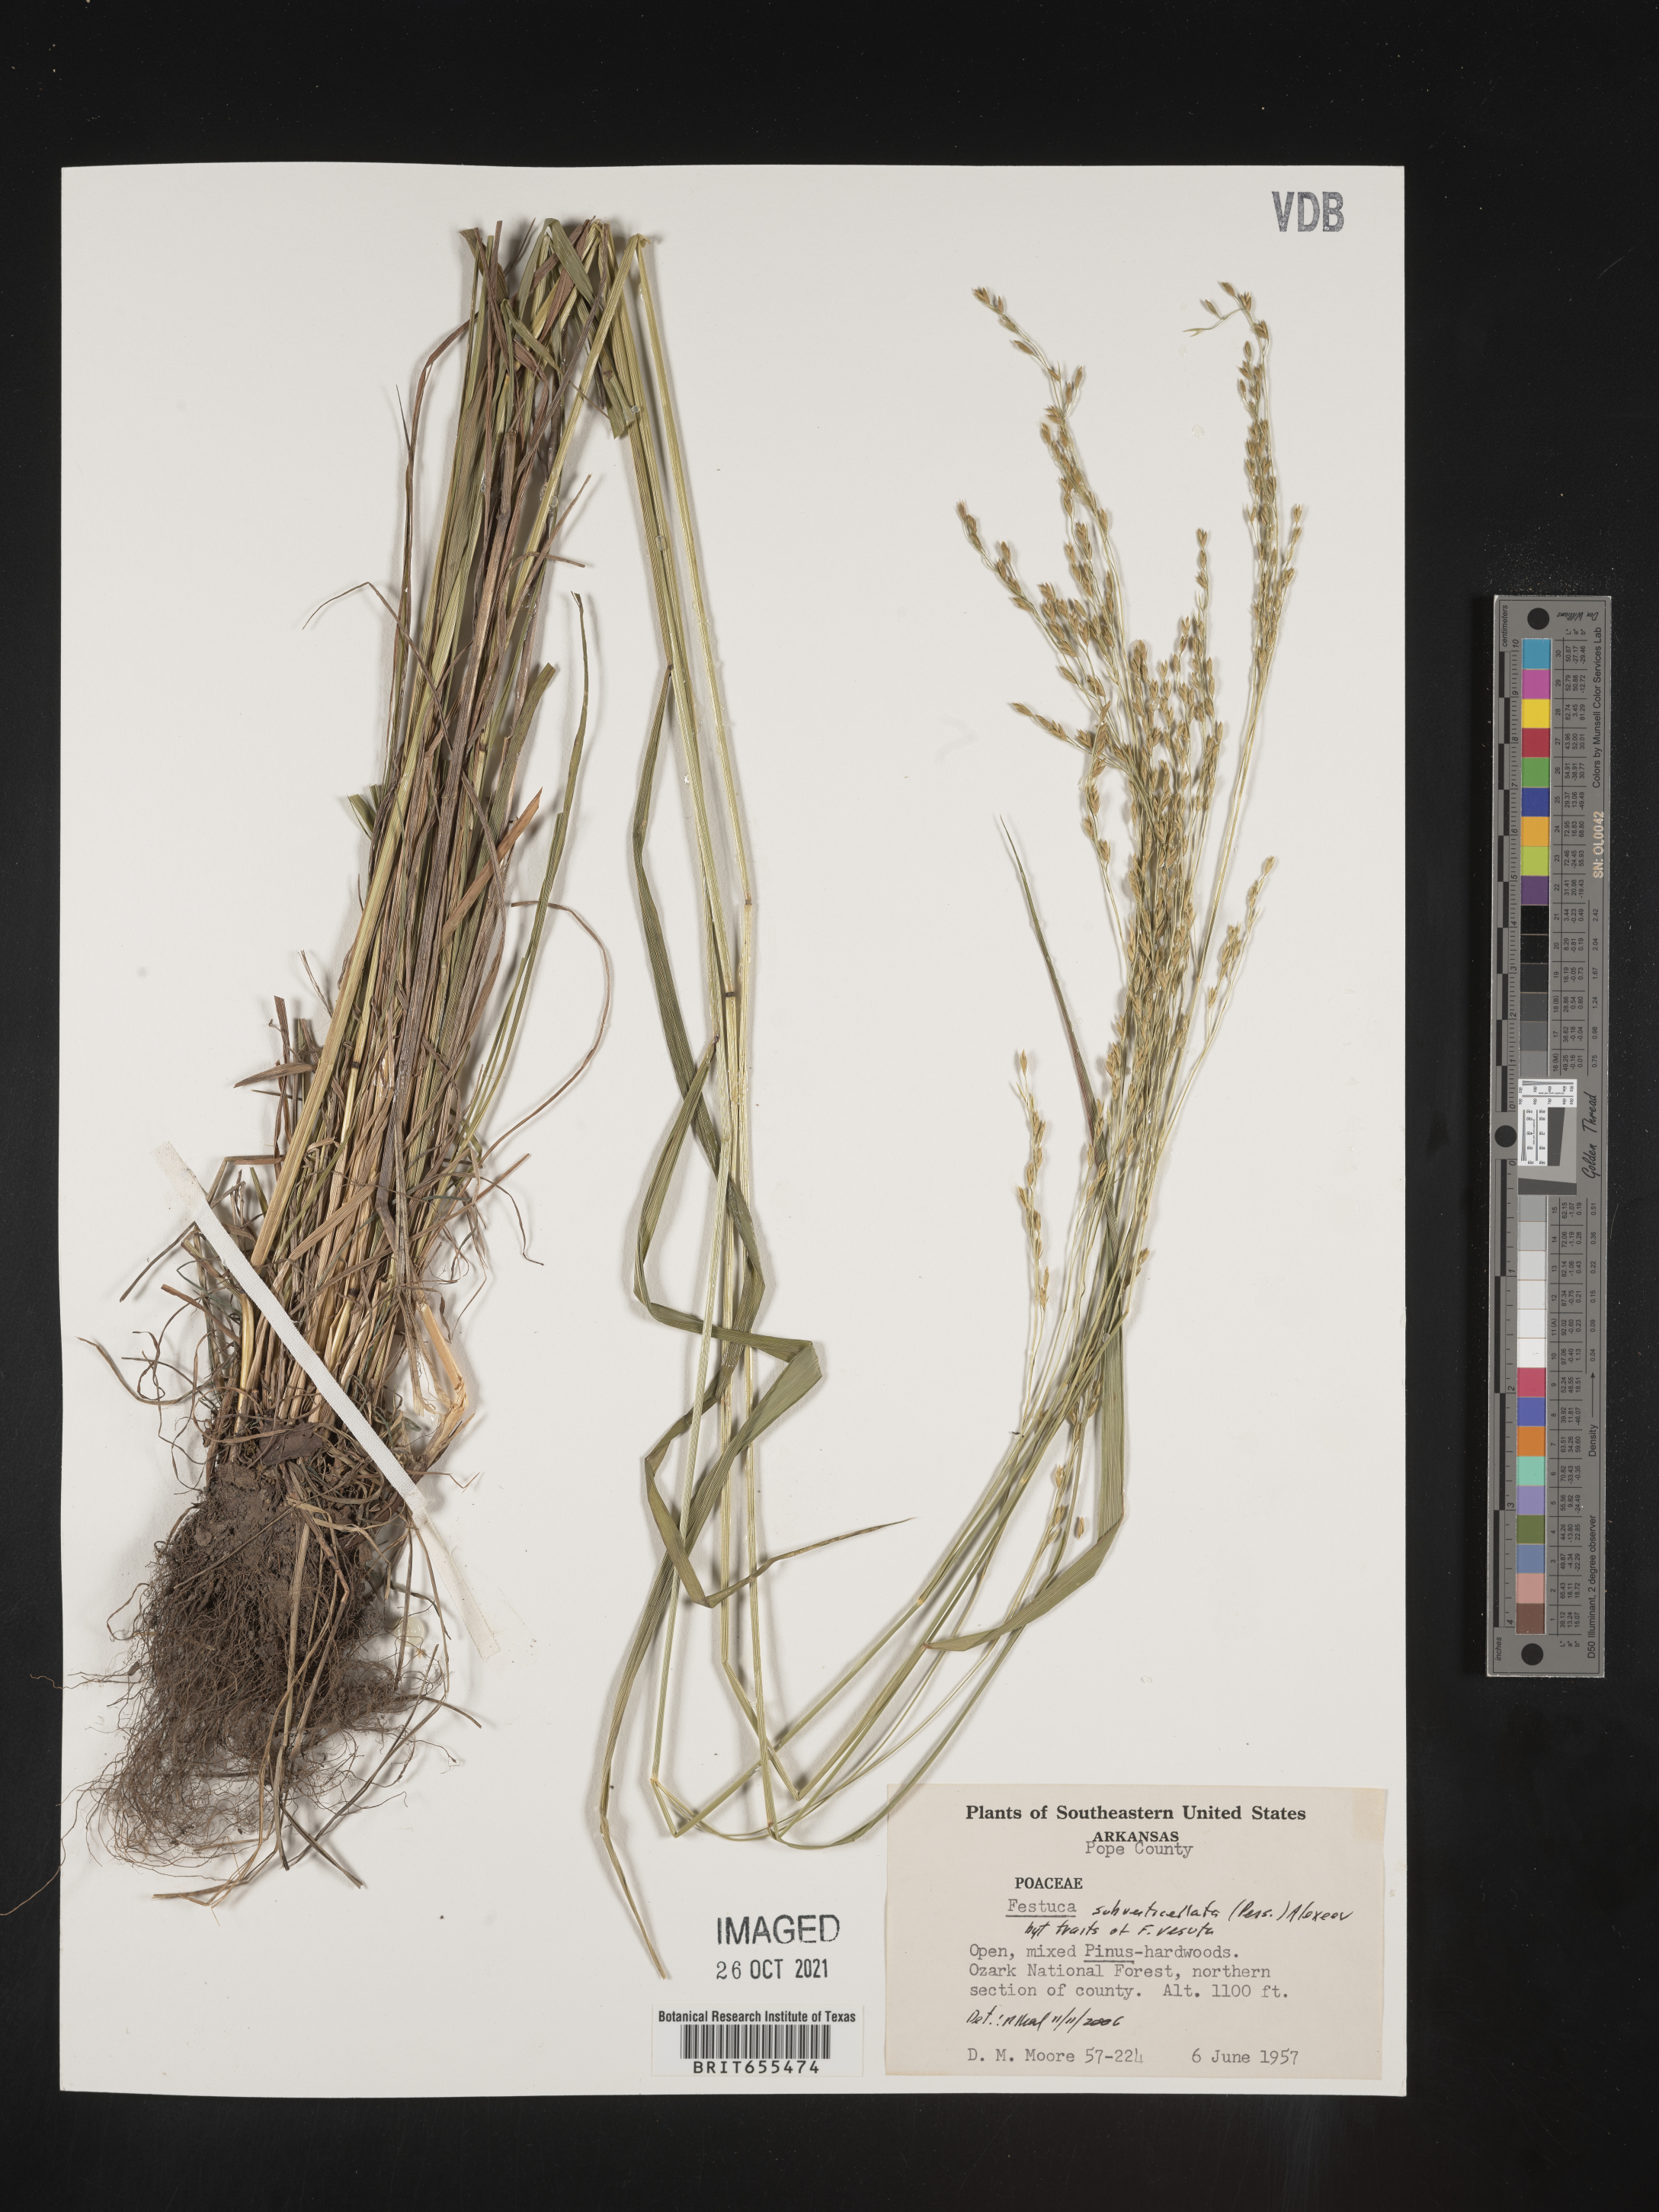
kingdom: Plantae
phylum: Tracheophyta
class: Liliopsida
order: Poales
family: Poaceae
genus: Festuca
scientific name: Festuca
